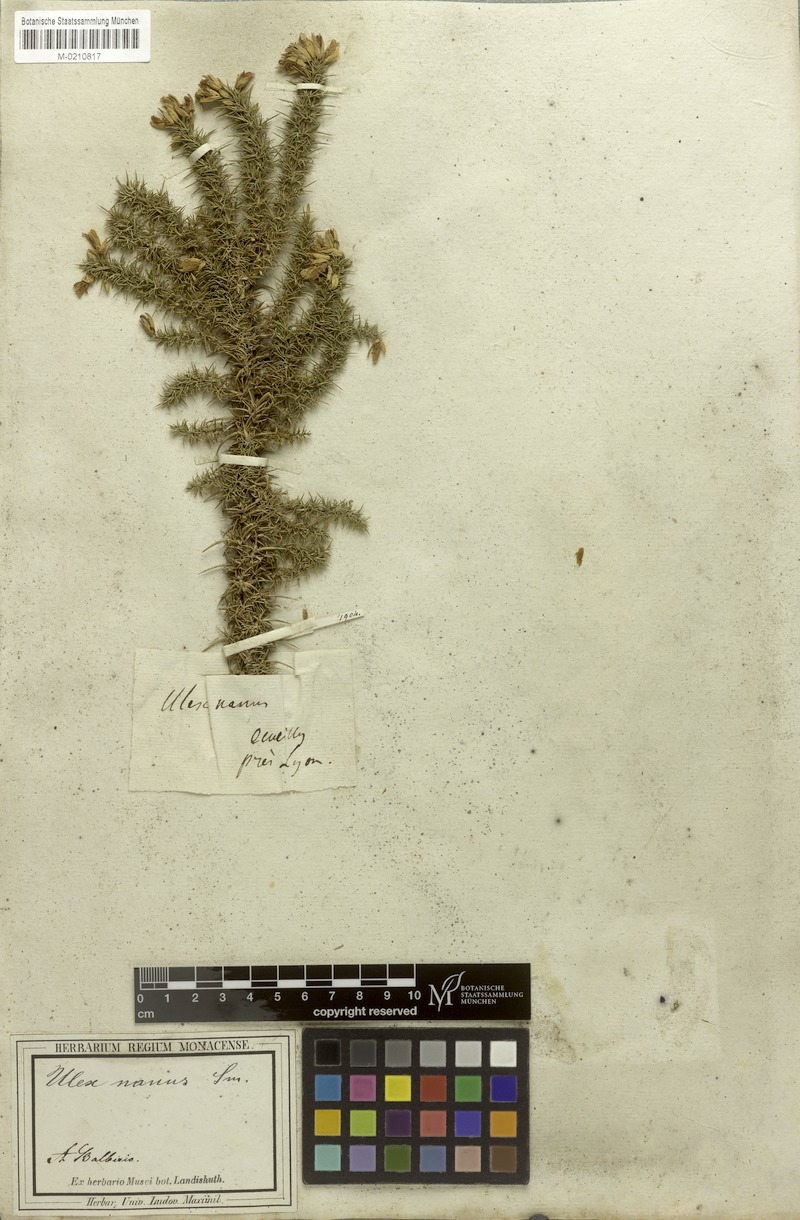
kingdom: Plantae
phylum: Tracheophyta
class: Magnoliopsida
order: Fabales
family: Fabaceae
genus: Ulex
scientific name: Ulex minor
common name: Dwarf gorse
